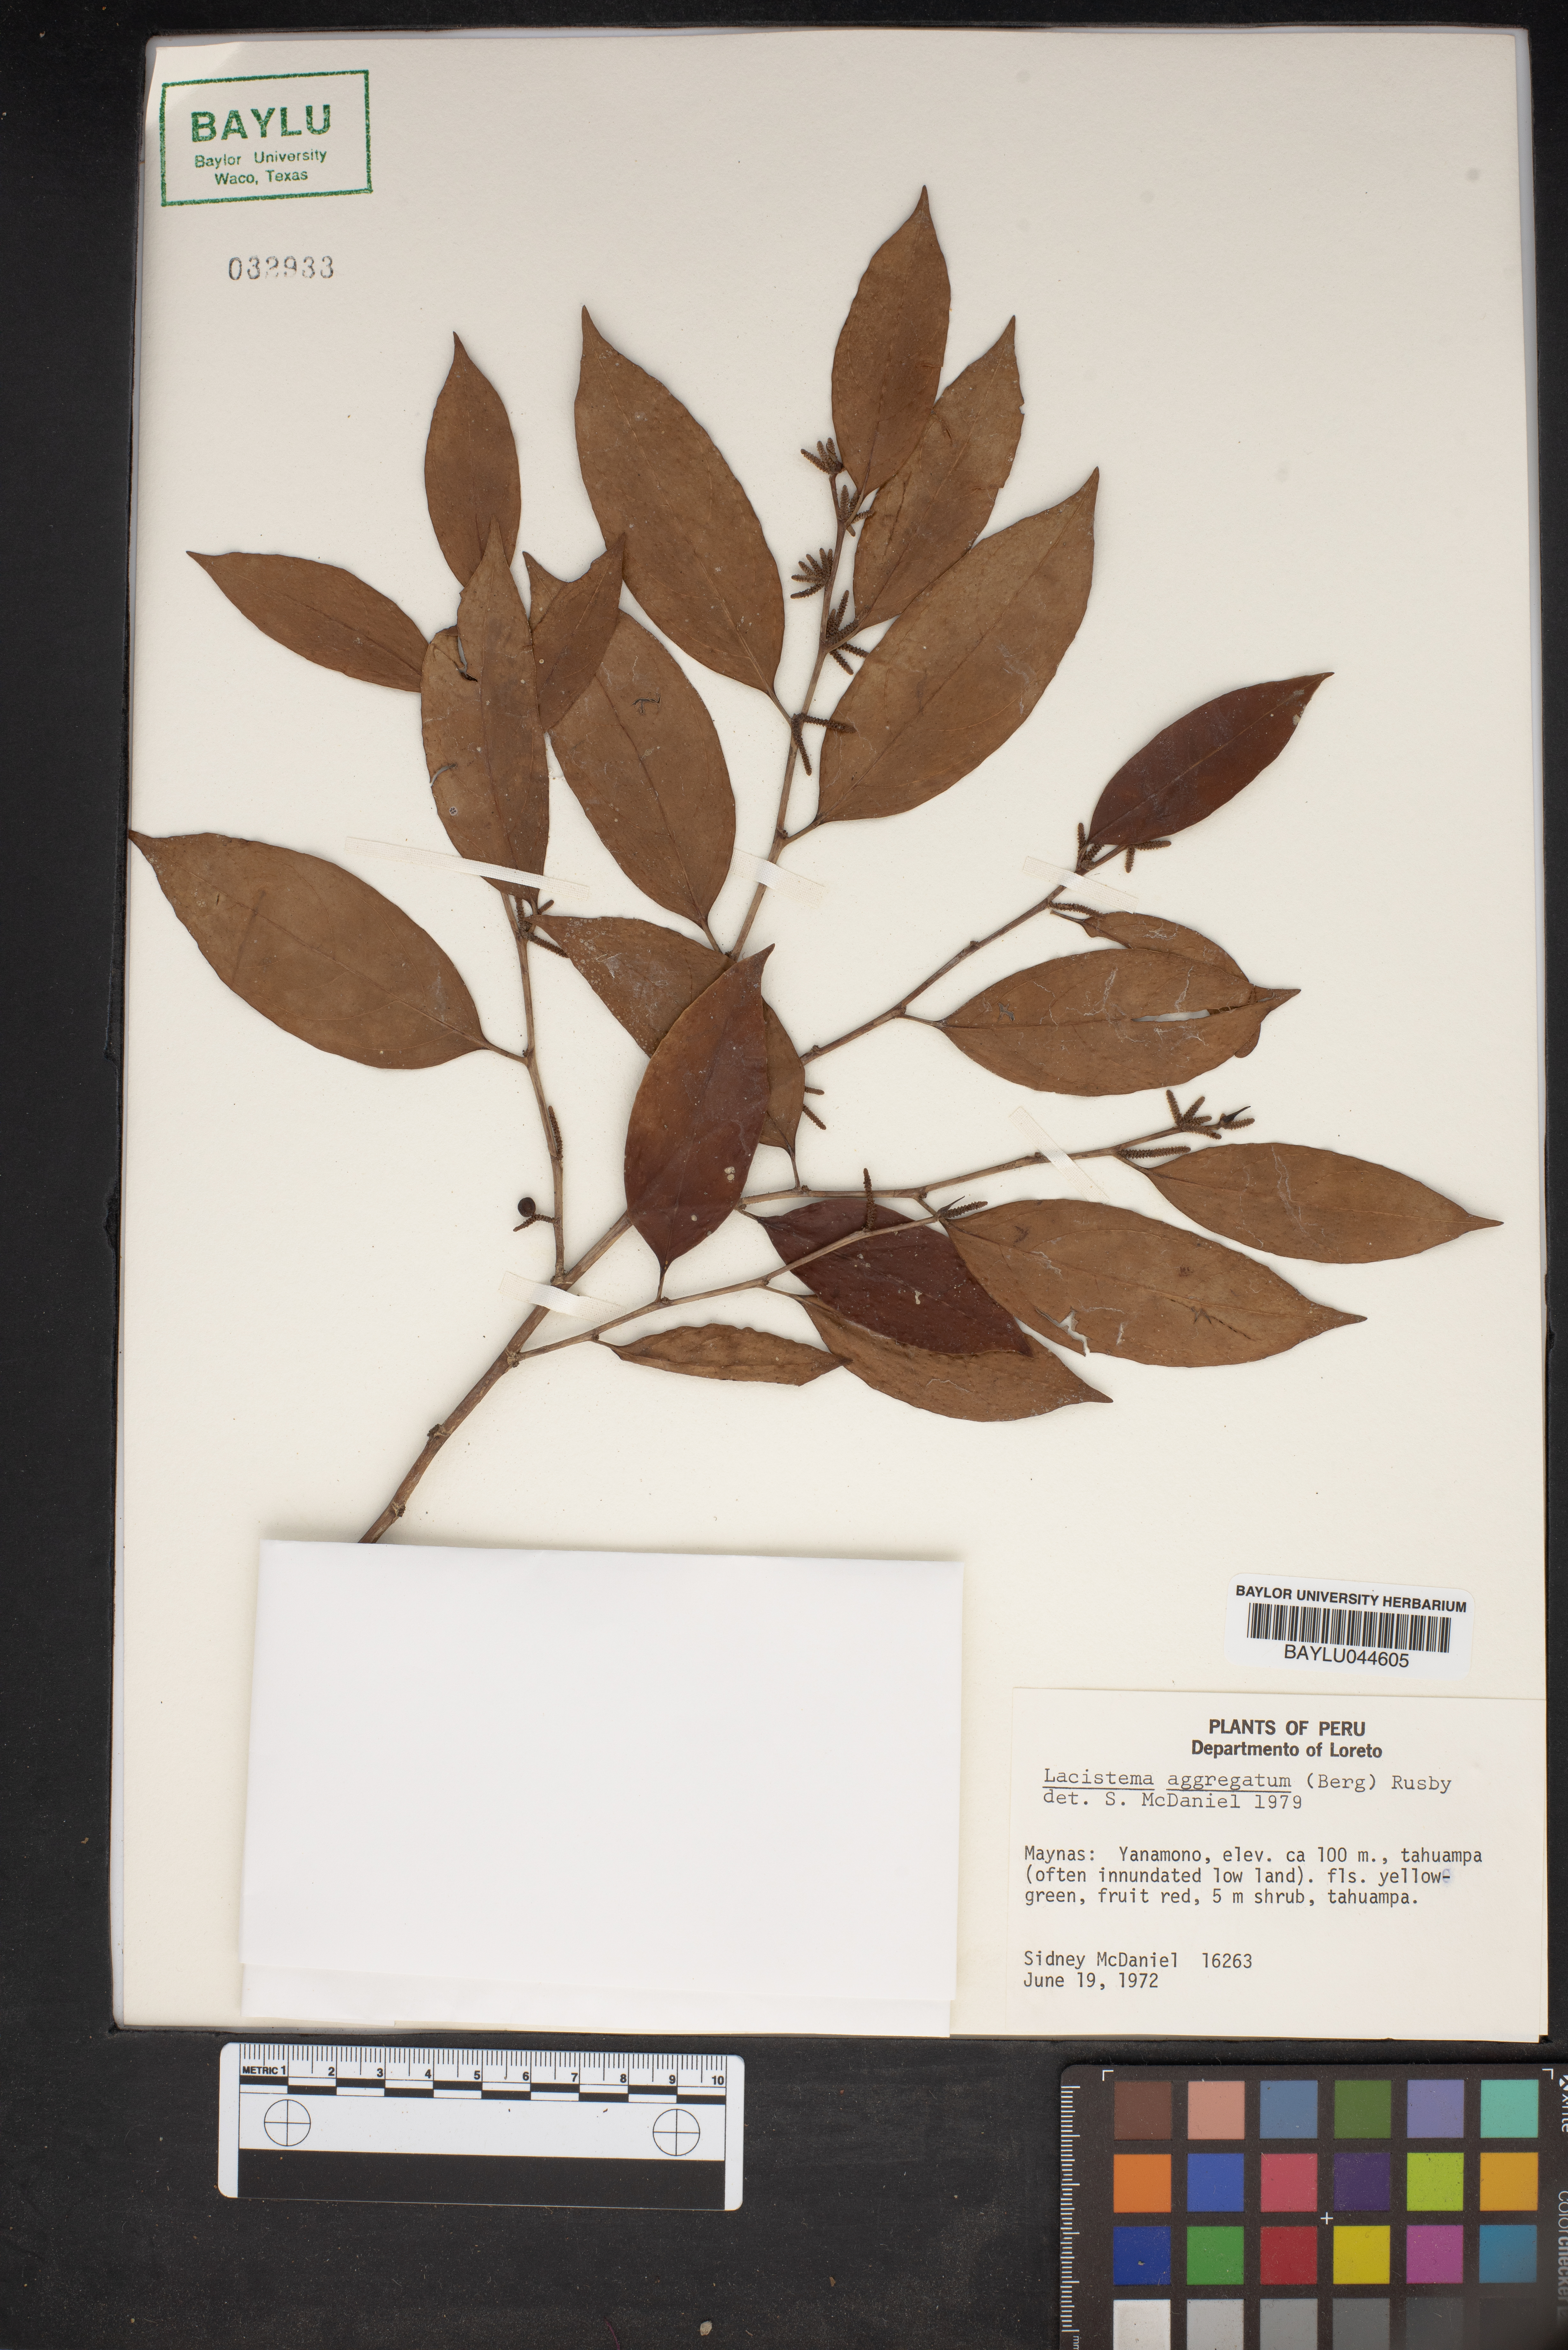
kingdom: Plantae
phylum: Tracheophyta
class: Magnoliopsida
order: Malpighiales
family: Lacistemataceae
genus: Lacistema
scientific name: Lacistema aggregatum
